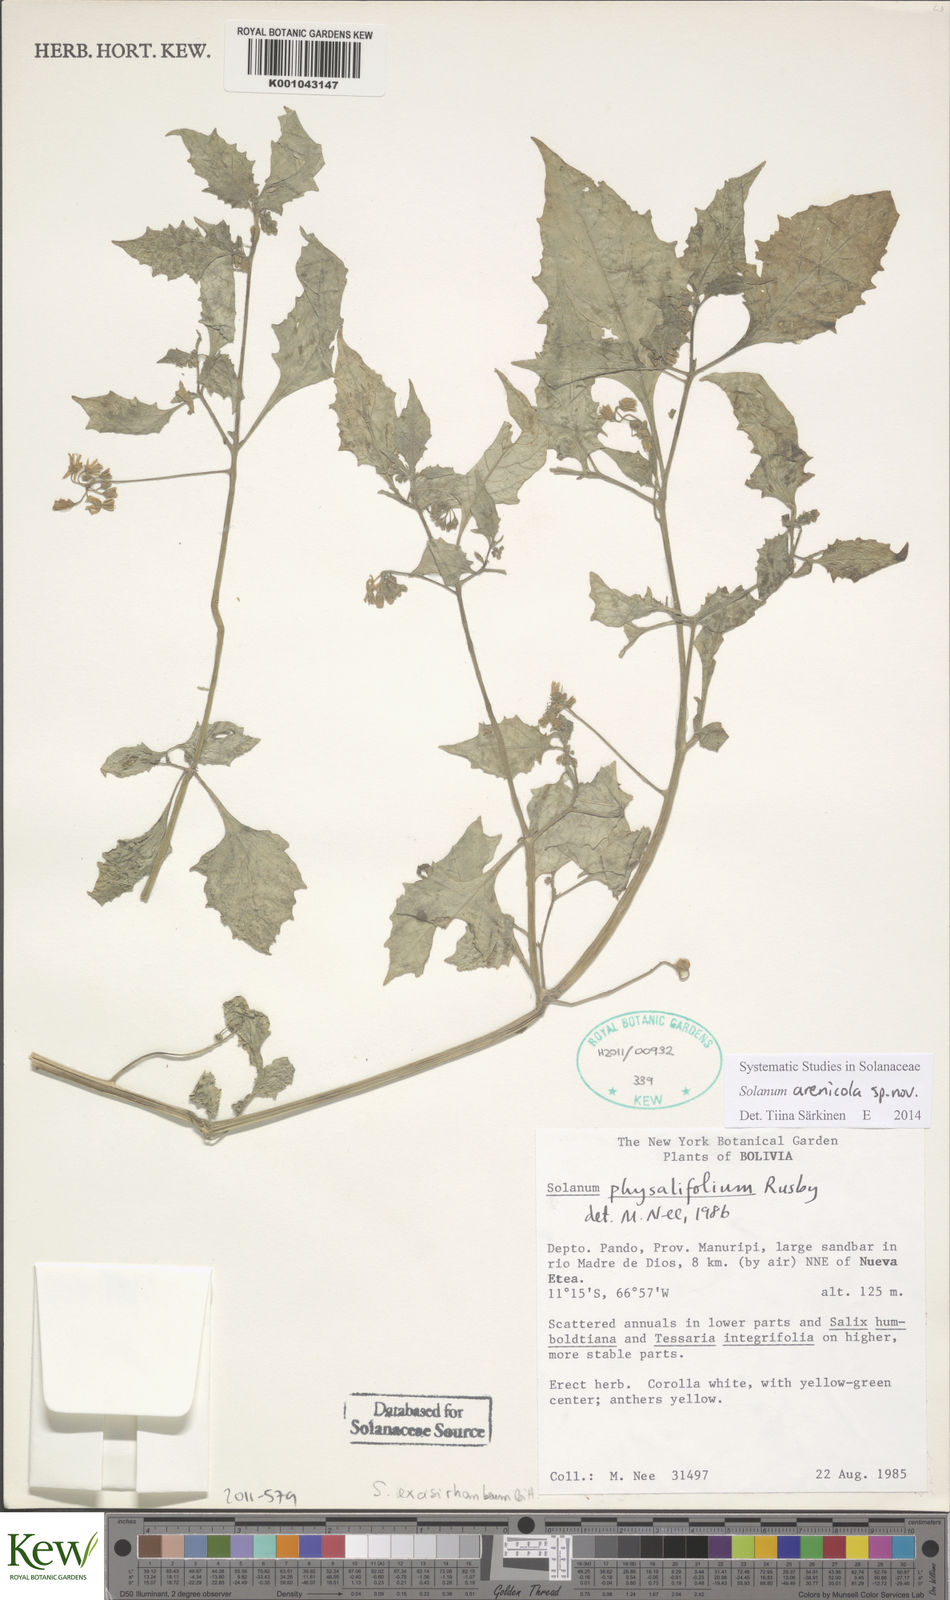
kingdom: Plantae
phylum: Tracheophyta
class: Magnoliopsida
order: Solanales
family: Solanaceae
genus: Solanum
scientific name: Solanum
